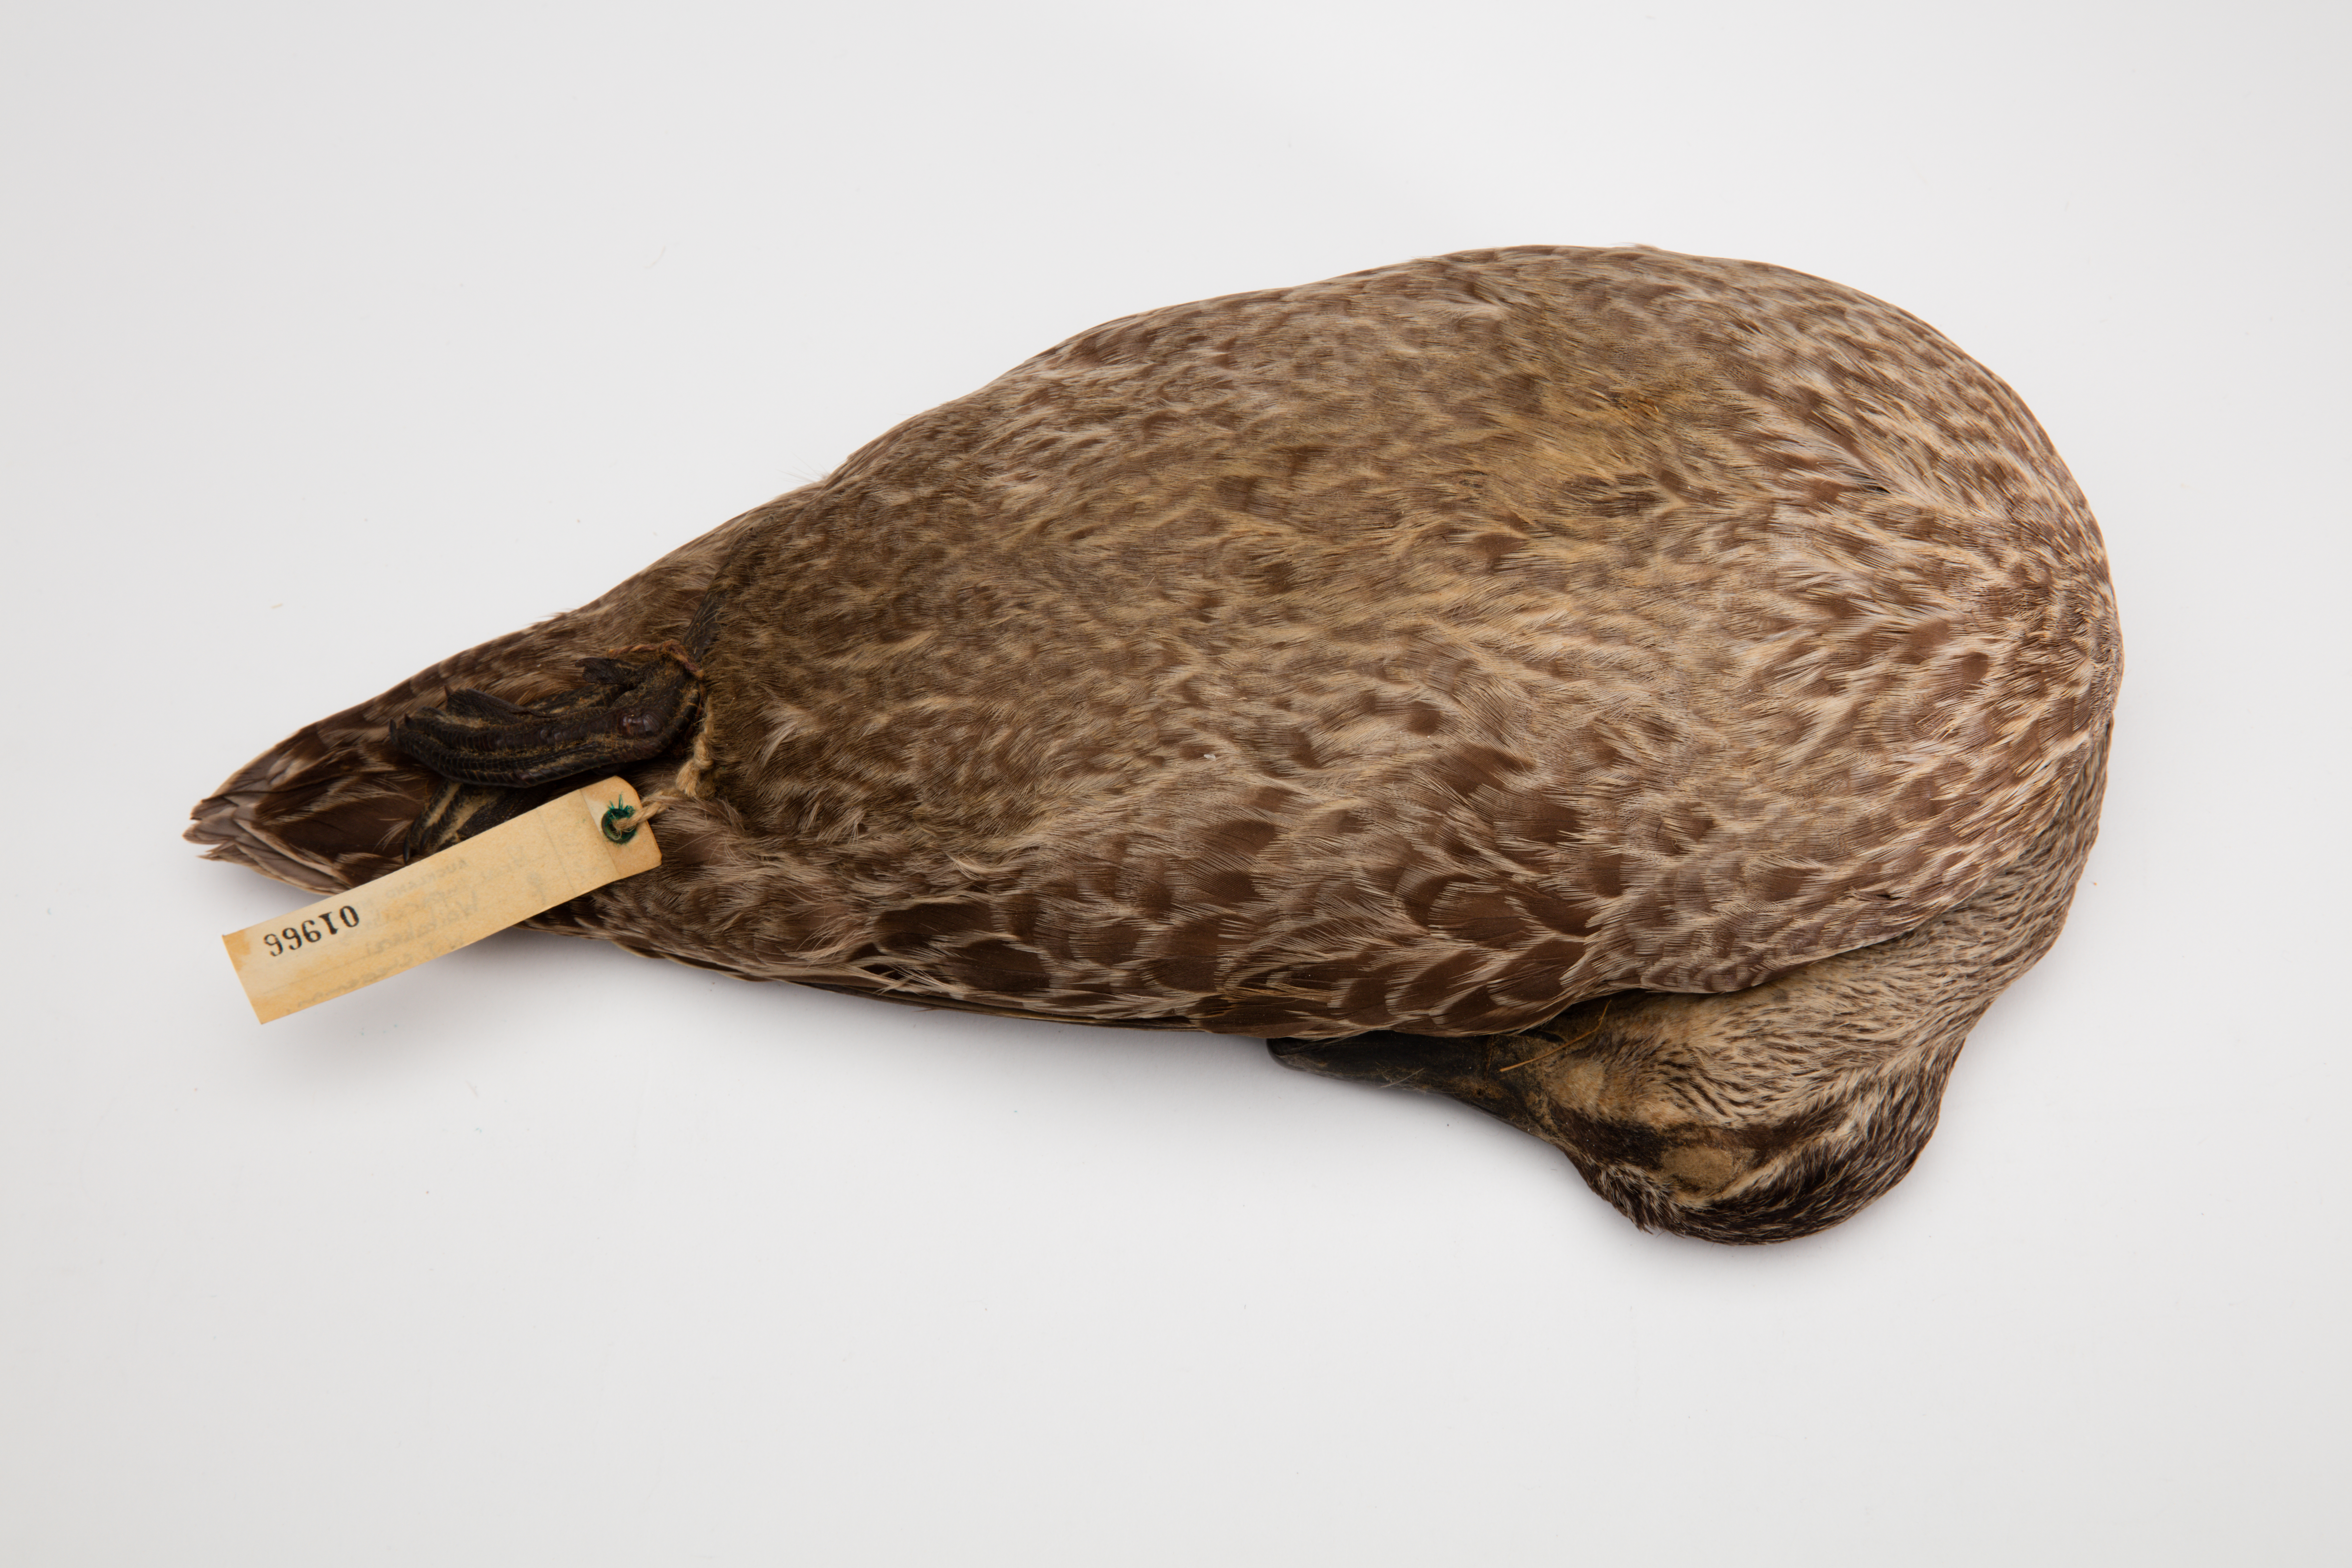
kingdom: Animalia
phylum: Chordata
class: Aves
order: Anseriformes
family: Anatidae
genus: Anas
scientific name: Anas superciliosa
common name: Pacific black duck
